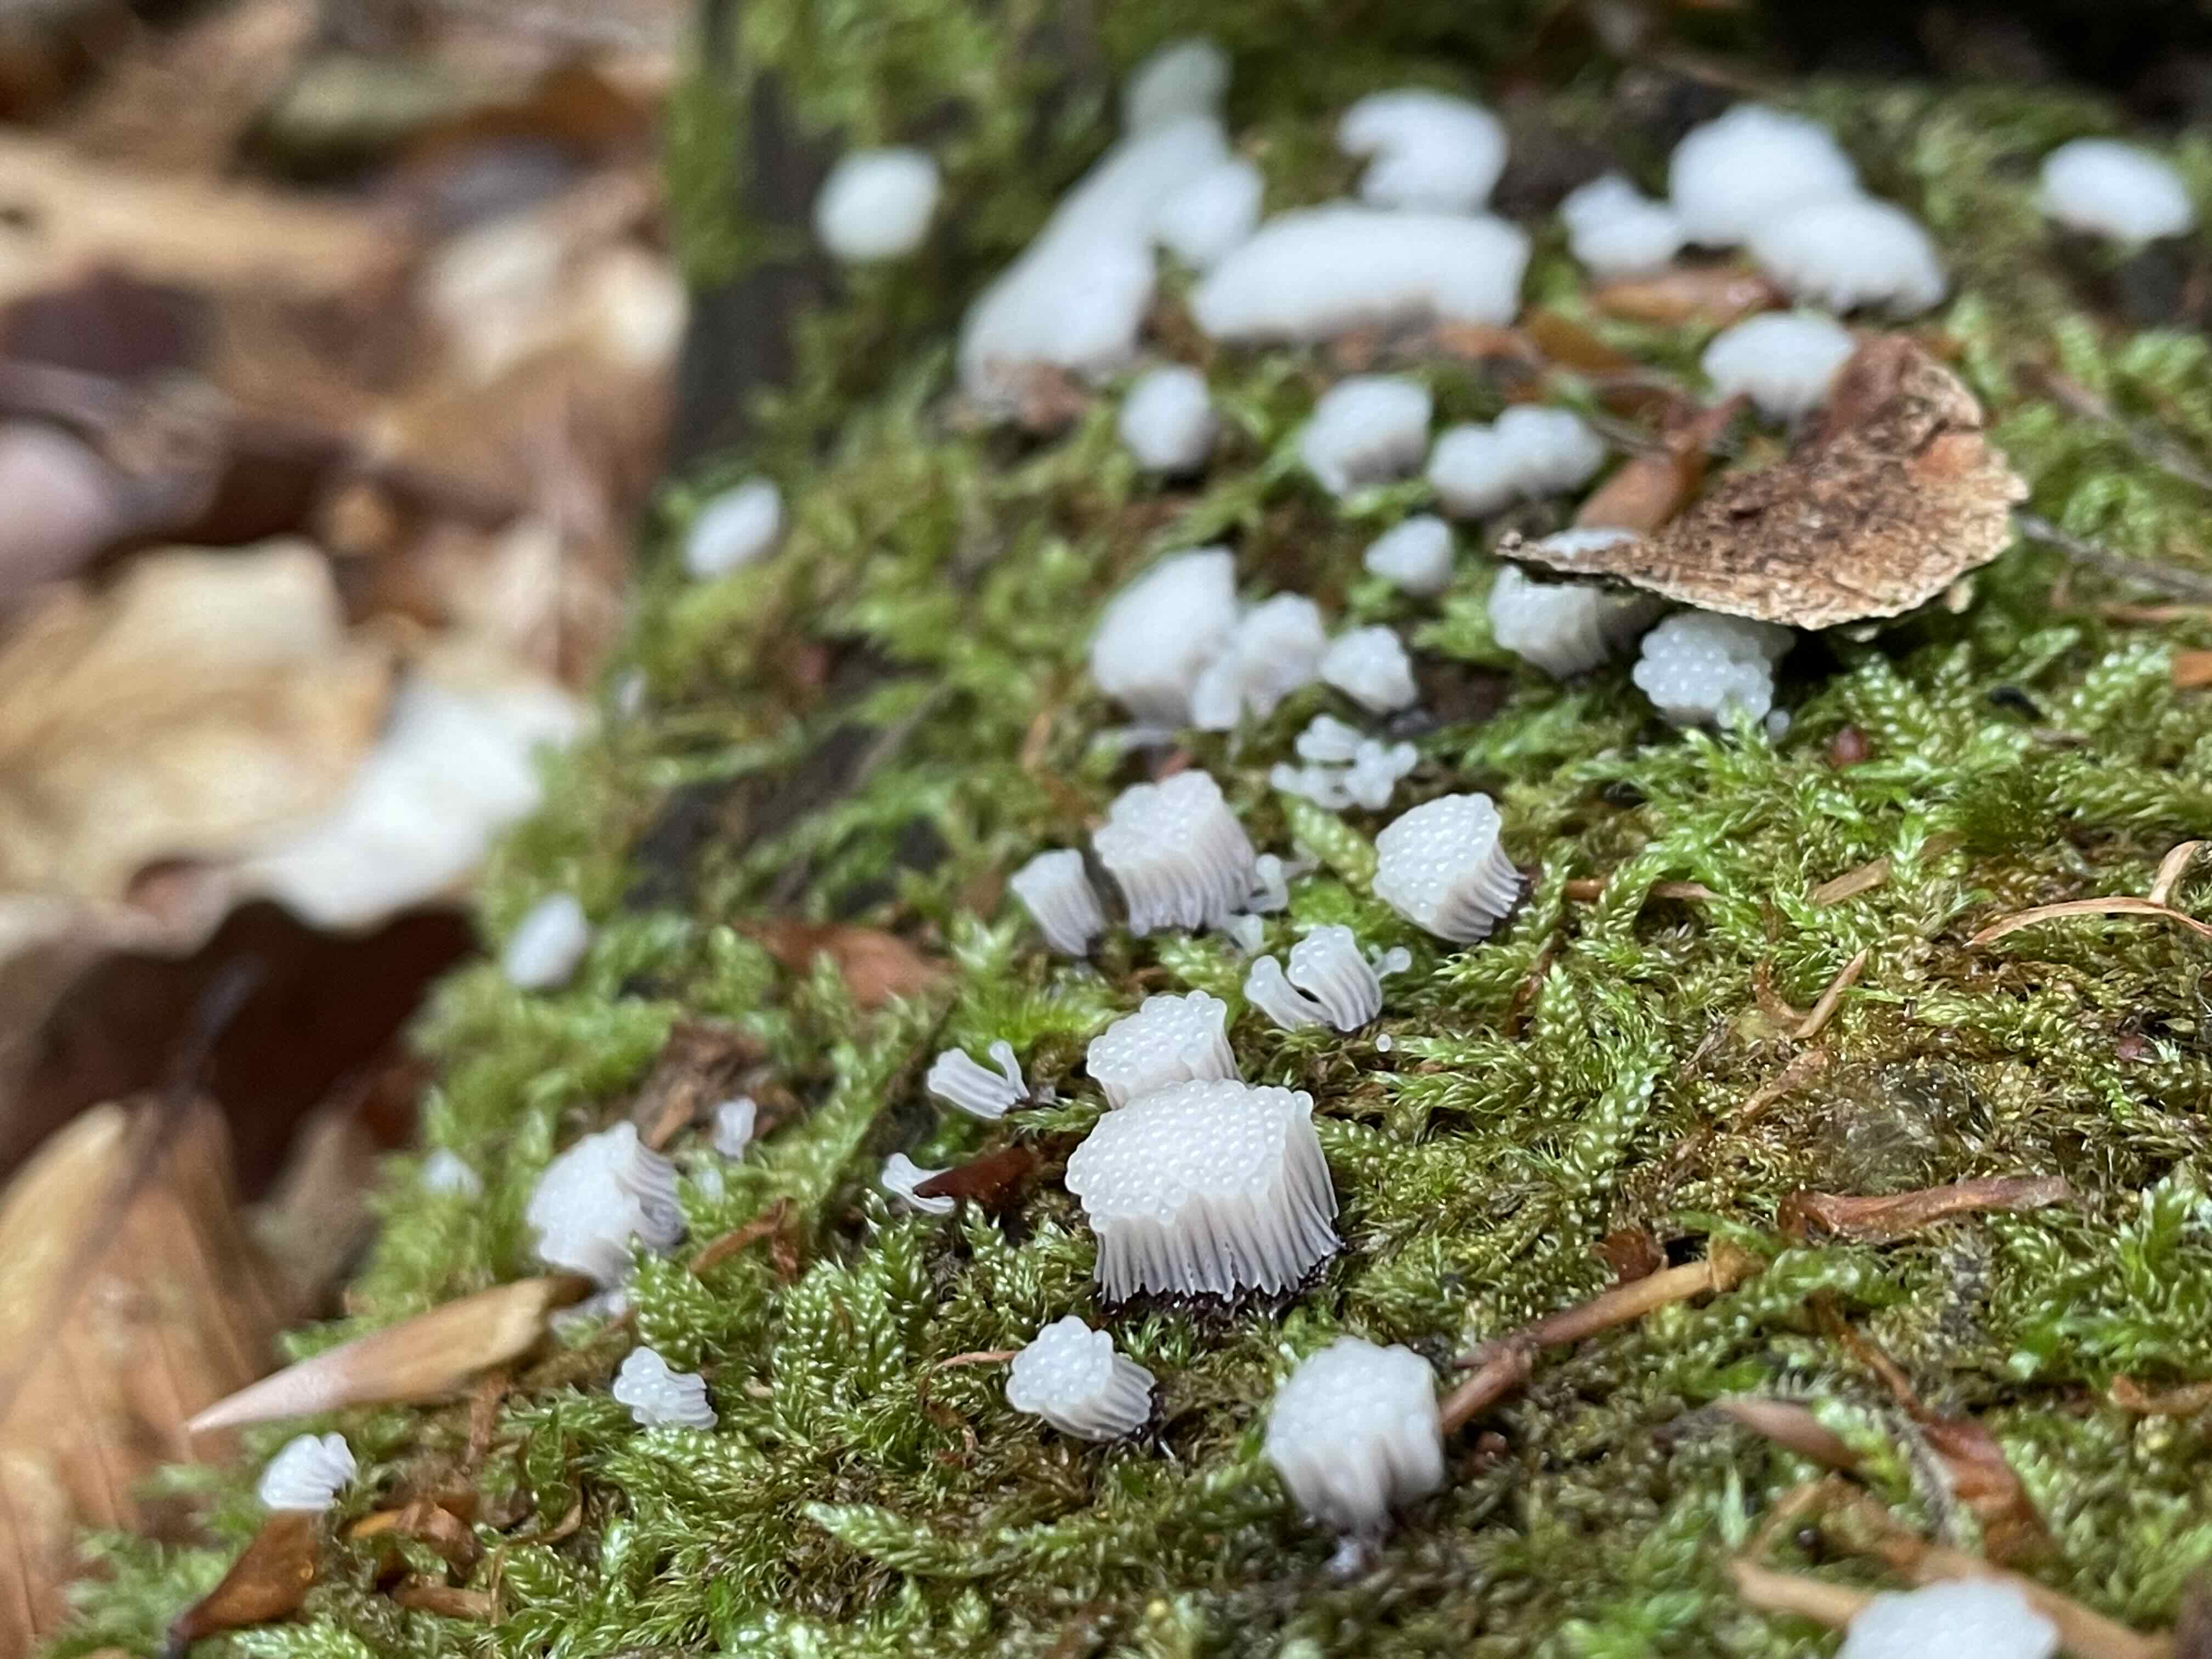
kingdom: Protozoa
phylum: Mycetozoa
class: Myxomycetes
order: Stemonitidales
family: Stemonitidaceae
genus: Stemonitis
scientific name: Stemonitis
